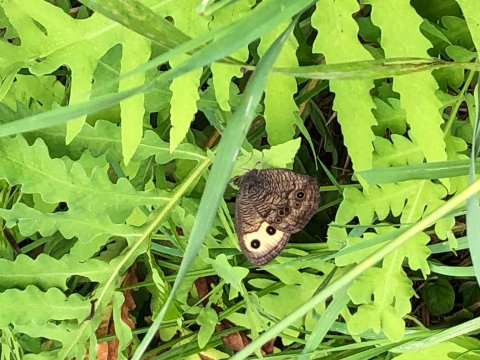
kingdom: Animalia
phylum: Arthropoda
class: Insecta
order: Lepidoptera
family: Nymphalidae
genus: Cercyonis
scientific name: Cercyonis pegala
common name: Common Wood-Nymph
